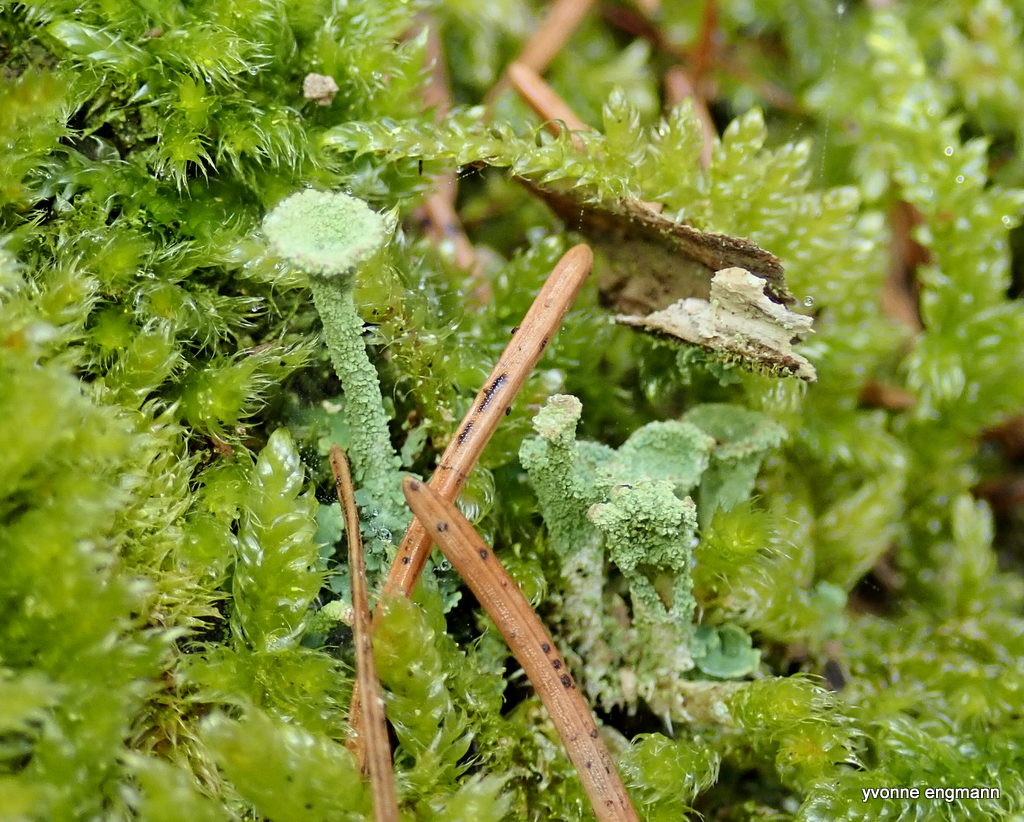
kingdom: Fungi
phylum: Ascomycota
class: Lecanoromycetes
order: Lecanorales
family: Cladoniaceae
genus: Cladonia
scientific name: Cladonia
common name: brungrøn bægerlav
